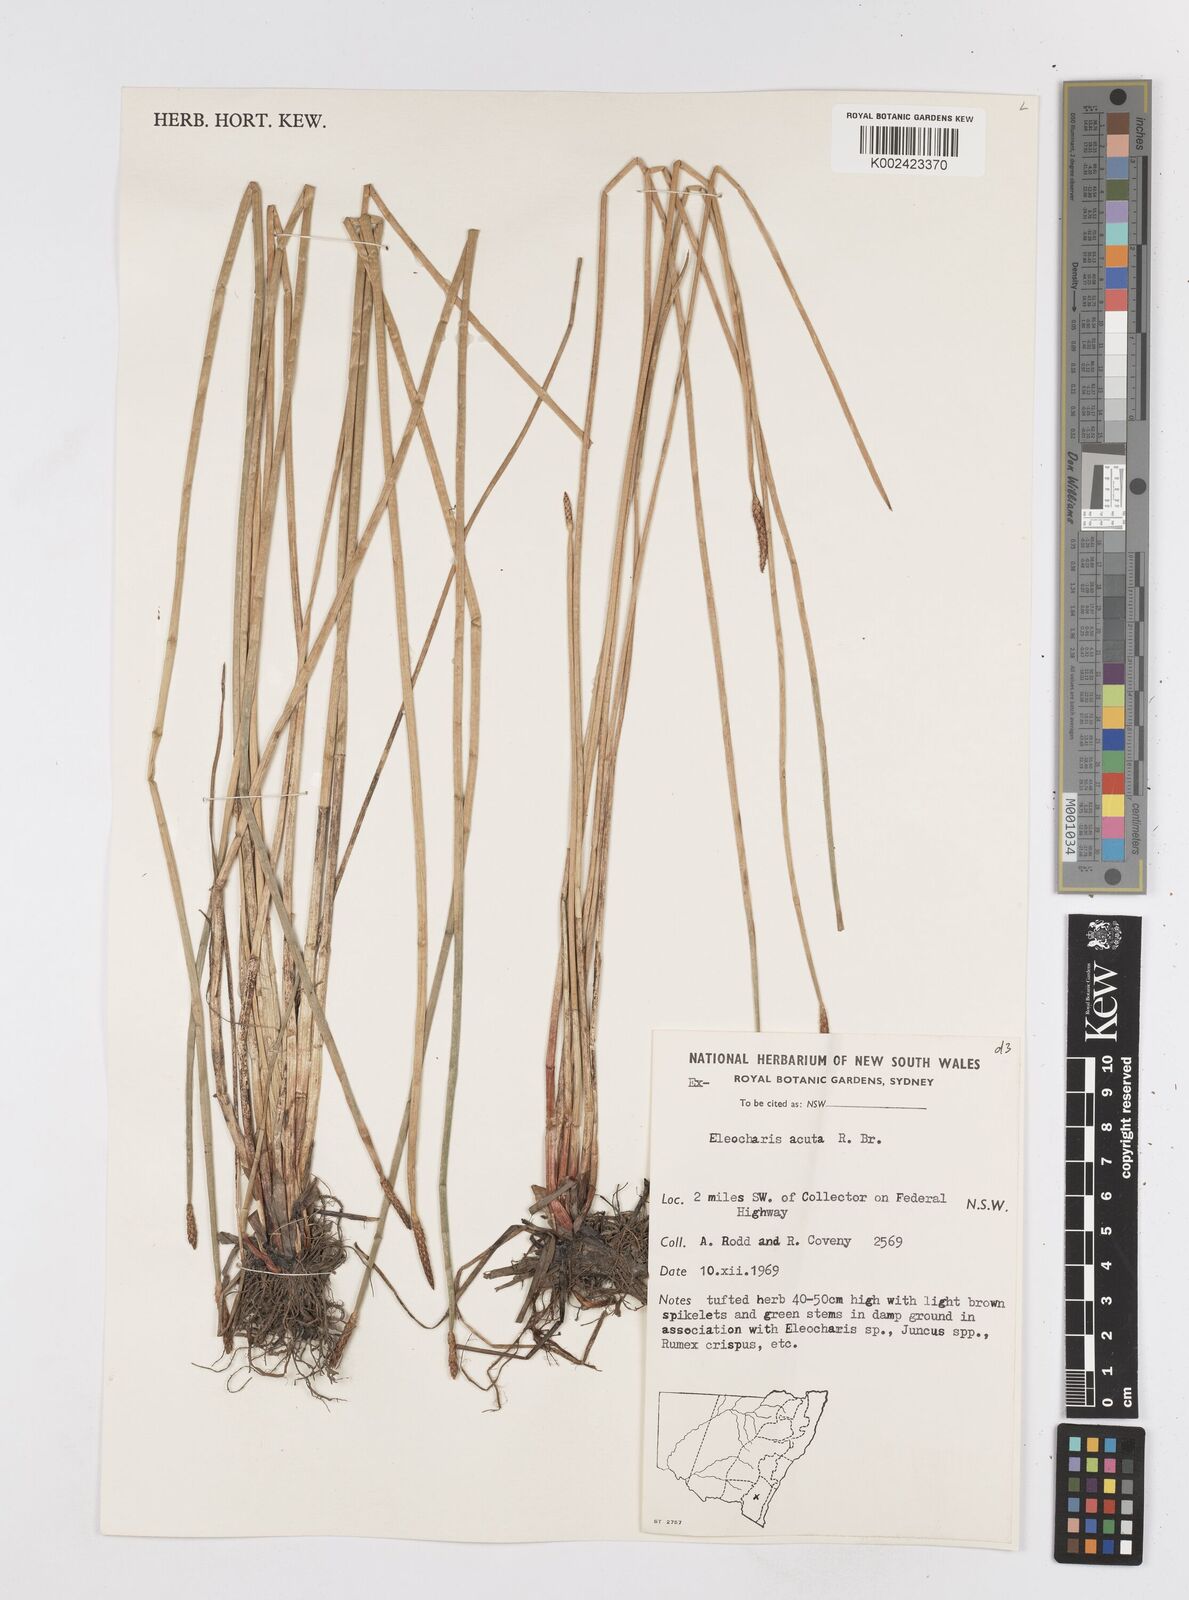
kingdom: Plantae
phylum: Tracheophyta
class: Liliopsida
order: Poales
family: Cyperaceae
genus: Eleocharis
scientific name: Eleocharis acuta
